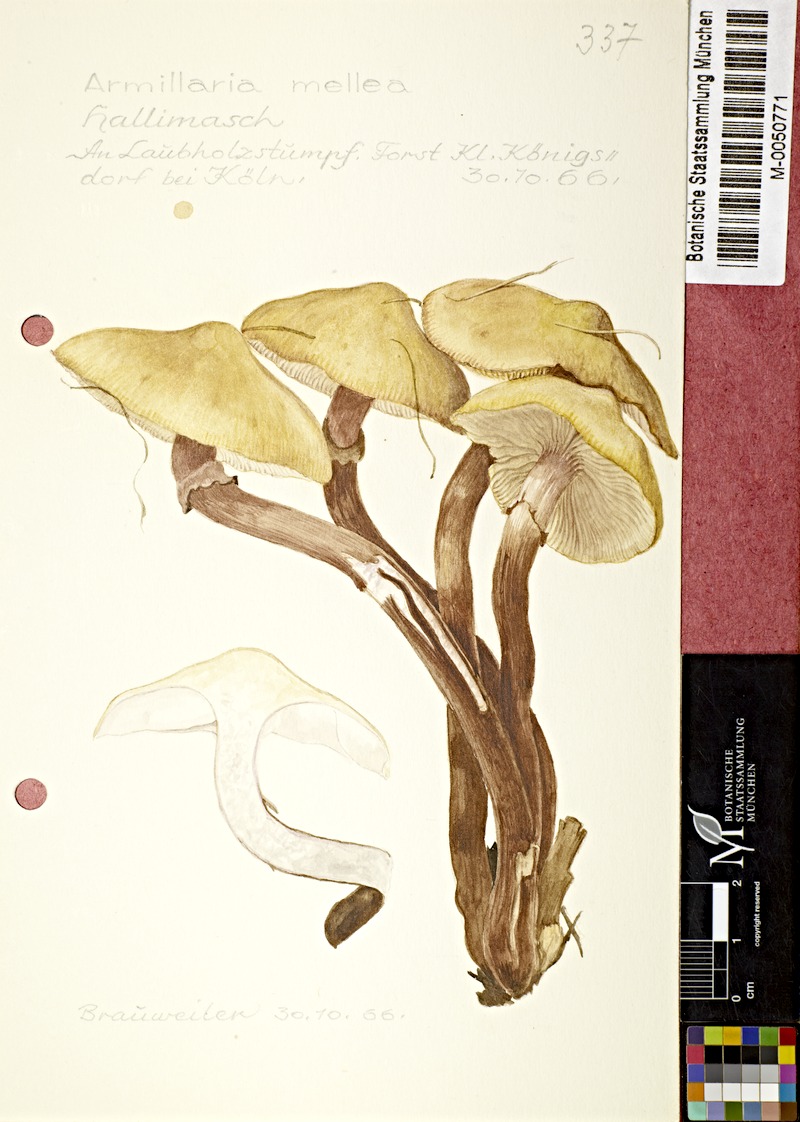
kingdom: Fungi
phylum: Basidiomycota
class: Agaricomycetes
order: Agaricales
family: Physalacriaceae
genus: Armillaria
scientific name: Armillaria mellea
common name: Honey fungus
